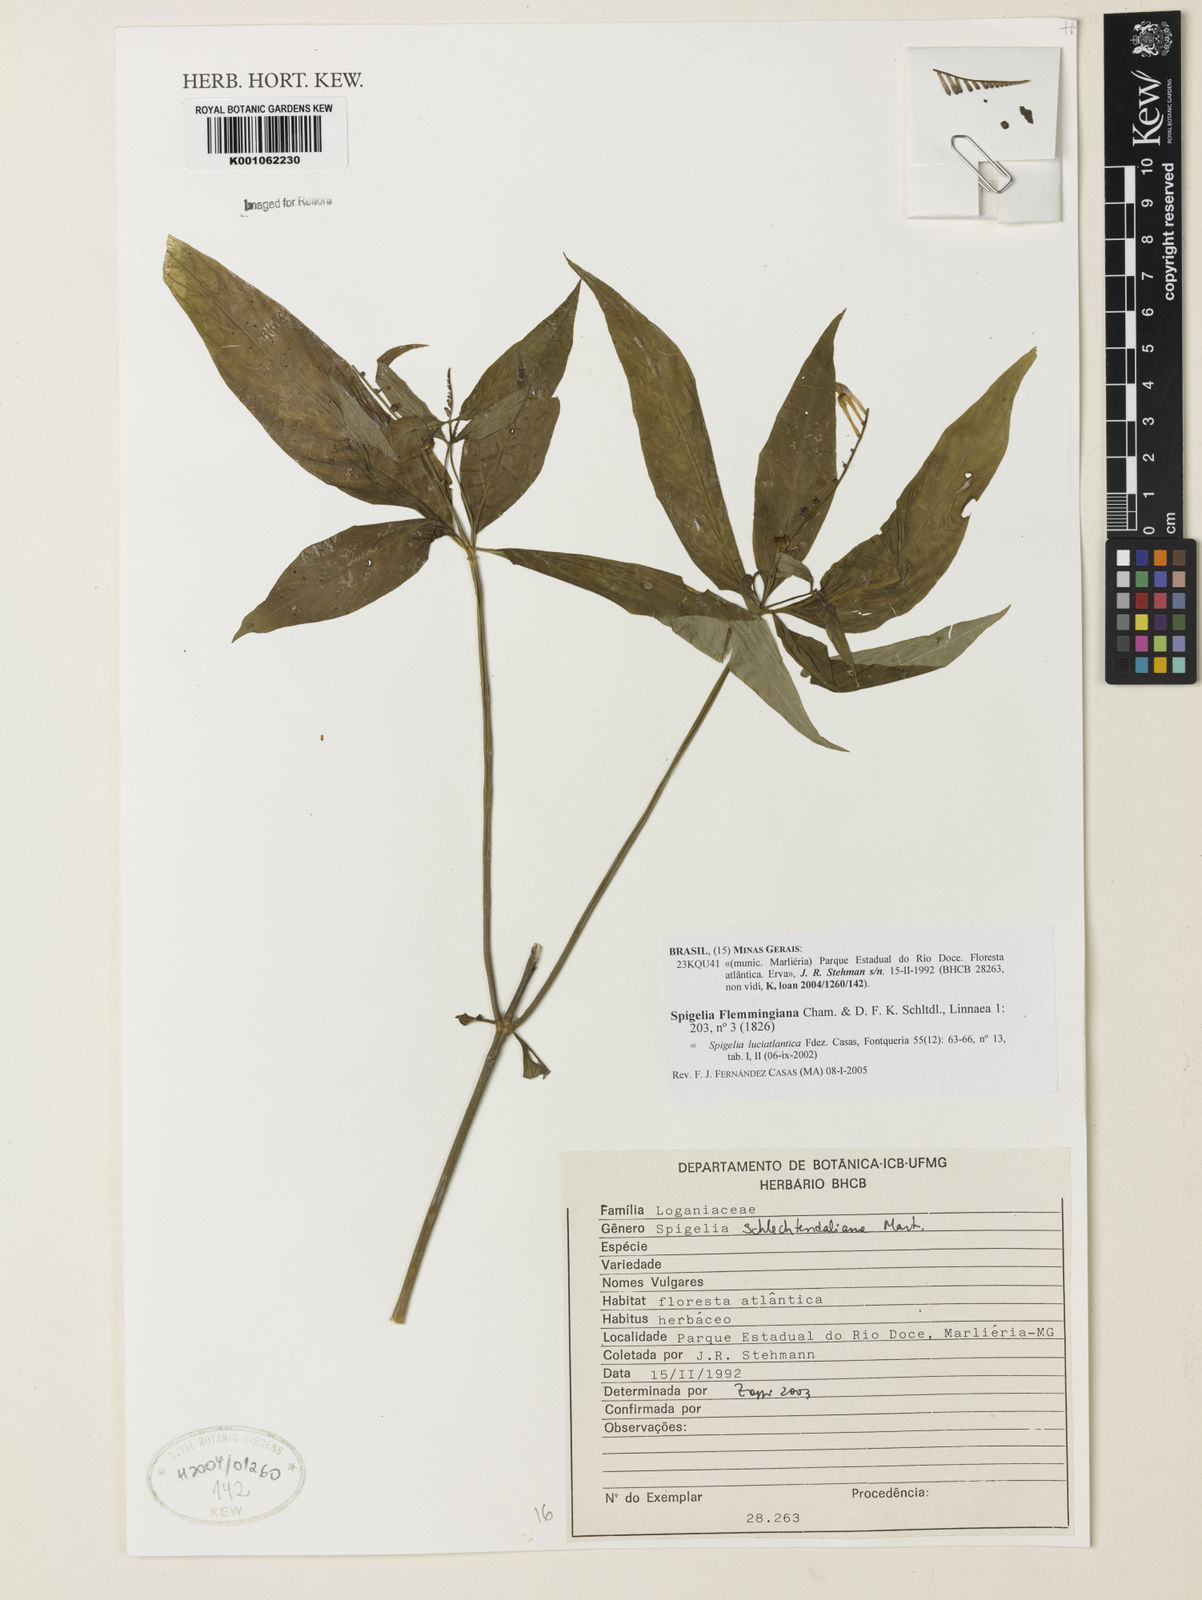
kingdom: Plantae
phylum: Tracheophyta
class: Magnoliopsida
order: Gentianales
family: Loganiaceae
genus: Spigelia
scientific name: Spigelia
